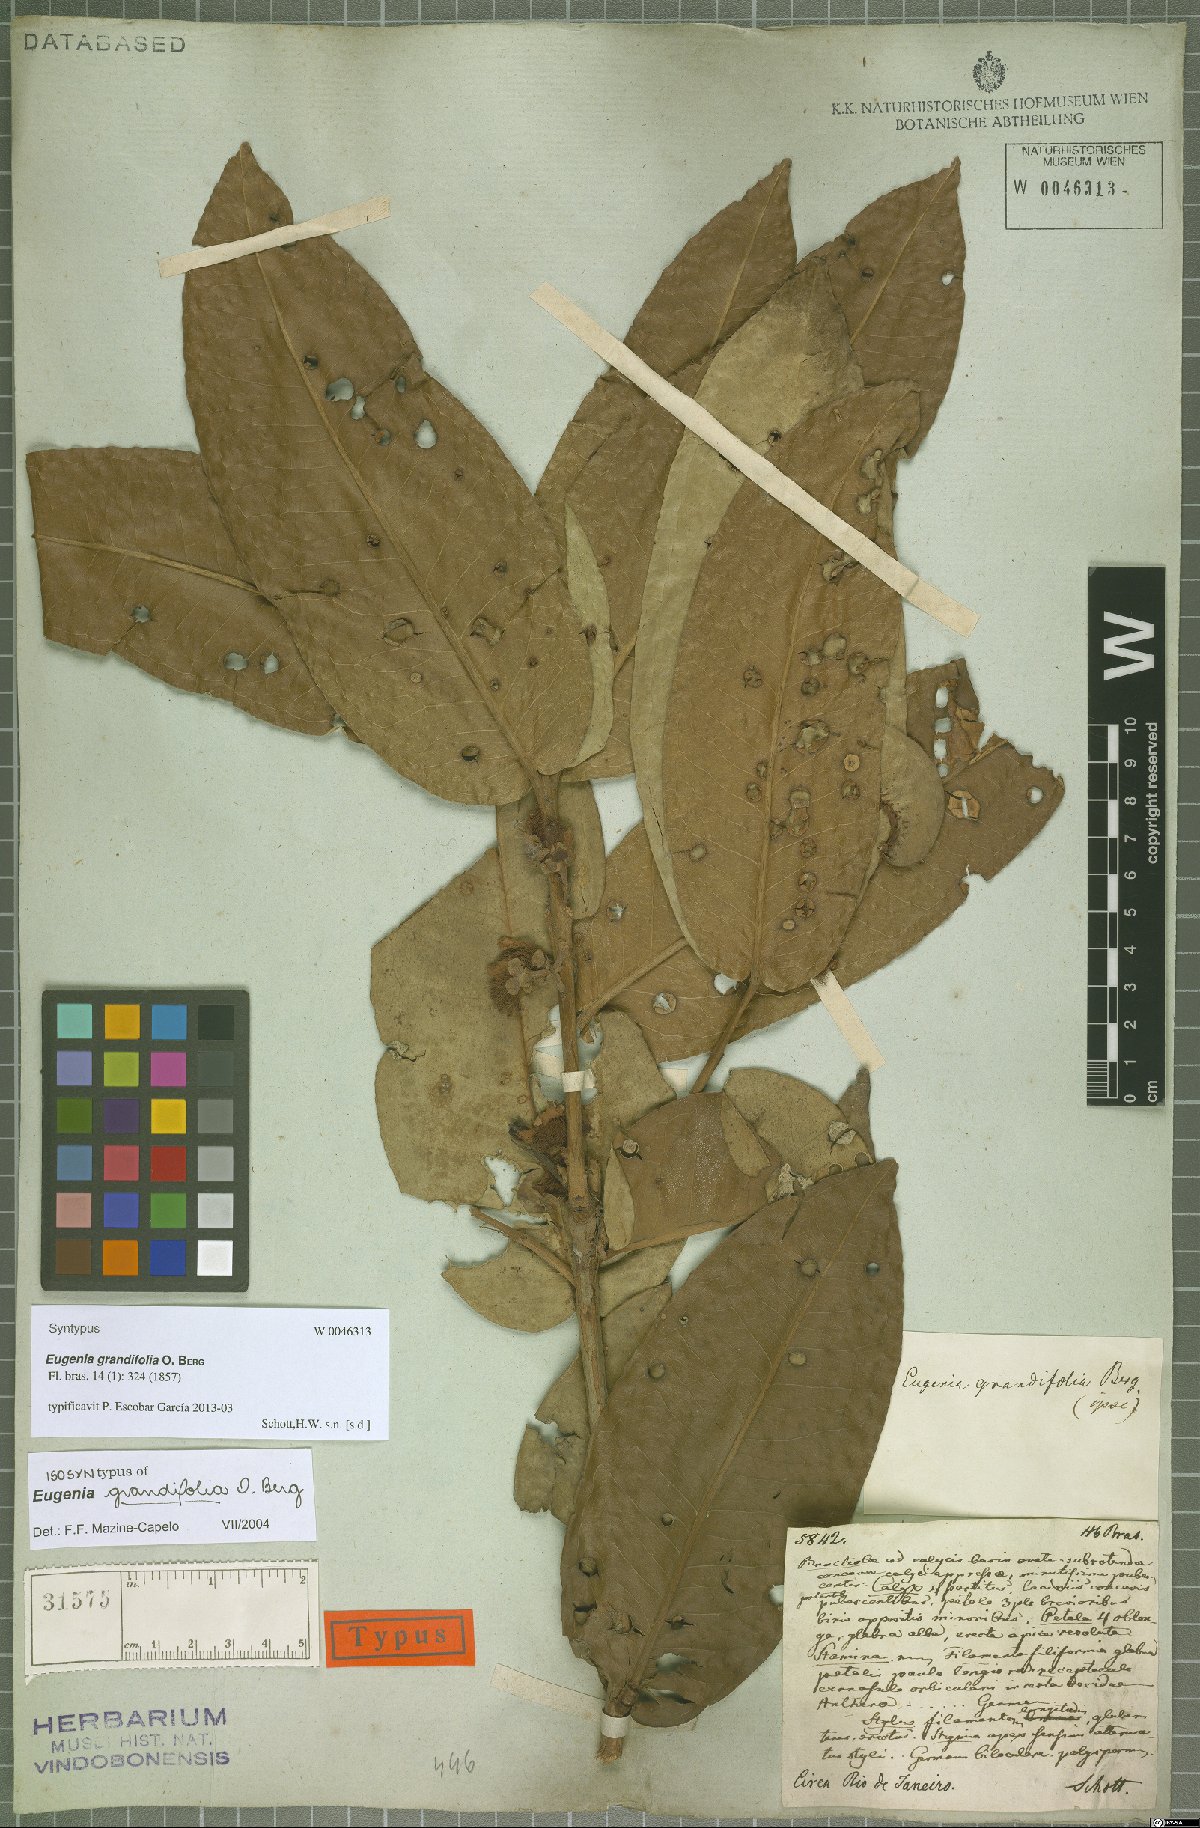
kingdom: Plantae
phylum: Tracheophyta
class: Magnoliopsida
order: Myrtales
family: Myrtaceae
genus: Eugenia
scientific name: Eugenia grandifolia
